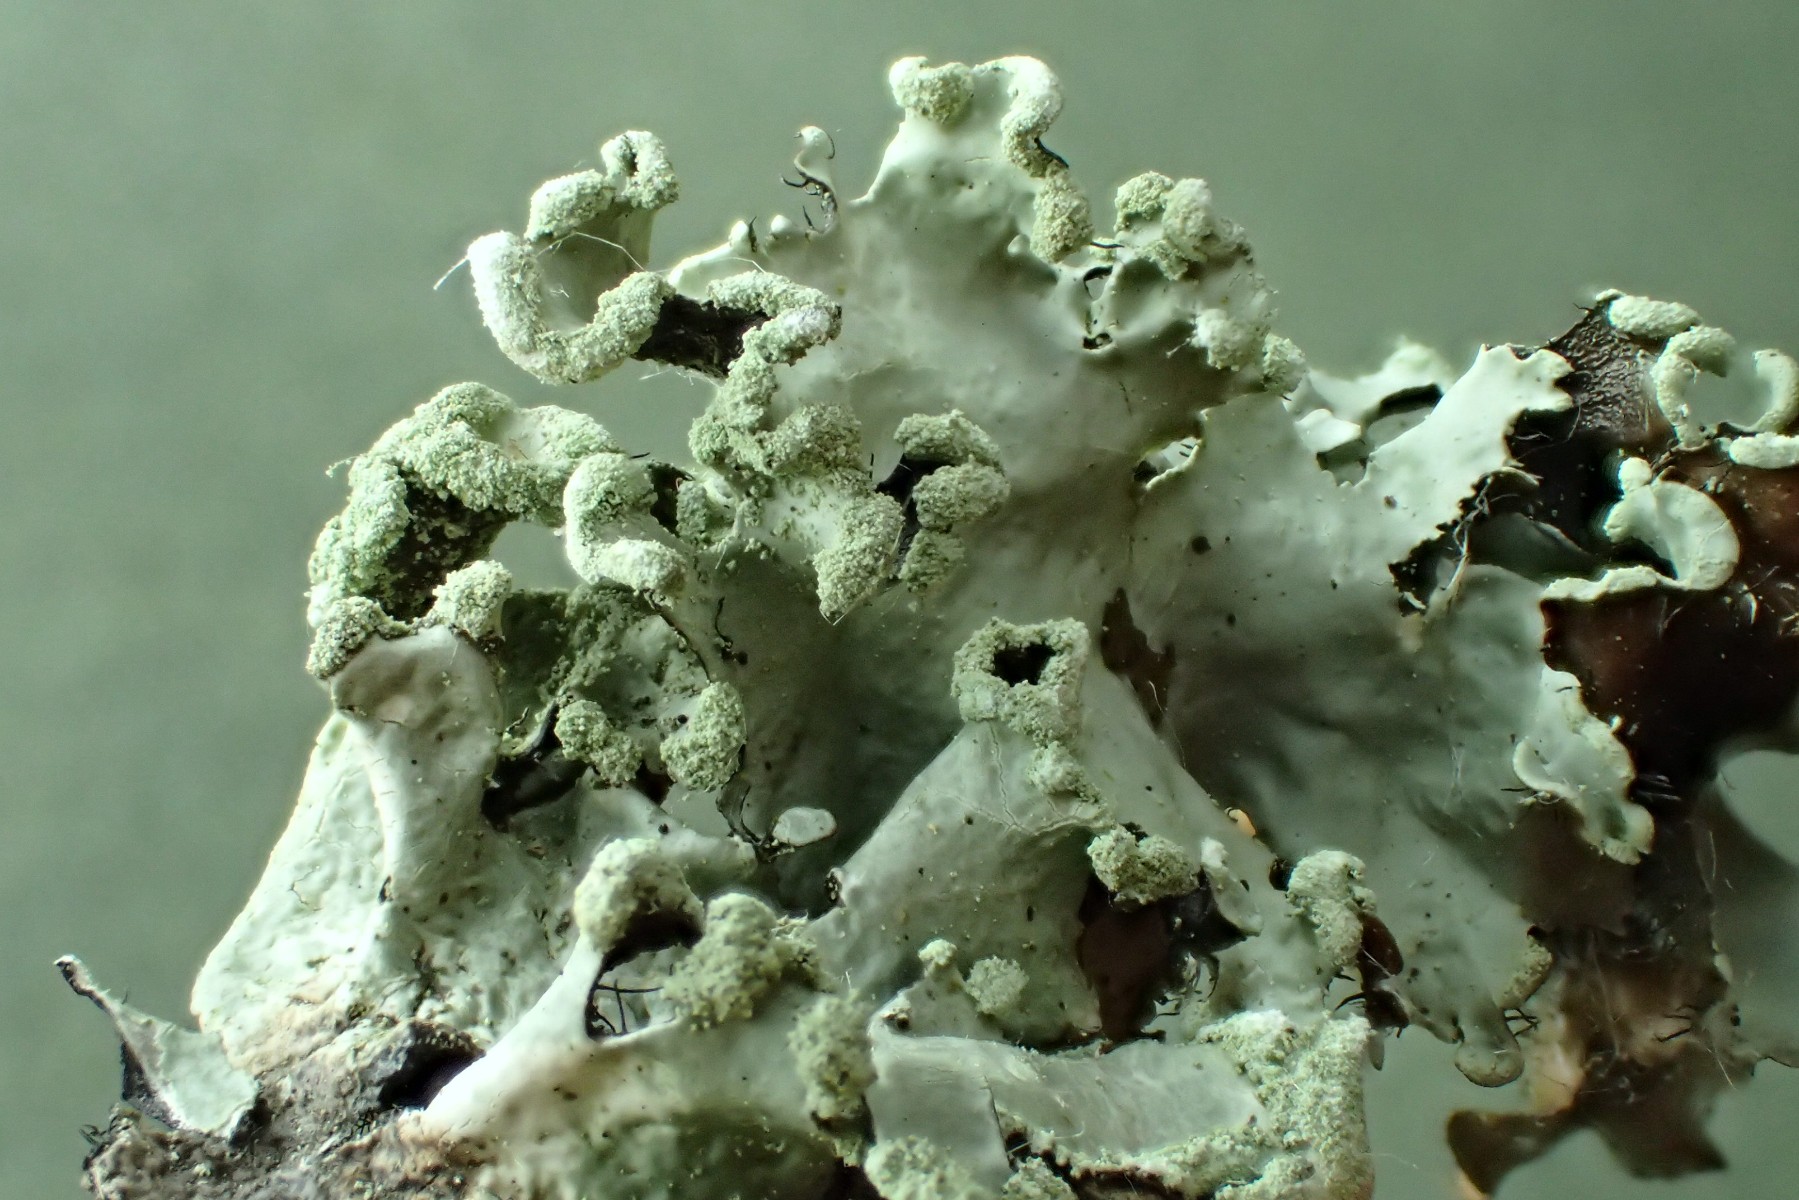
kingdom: Fungi
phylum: Ascomycota
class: Lecanoromycetes
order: Lecanorales
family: Parmeliaceae
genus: Parmotrema
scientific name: Parmotrema perlatum
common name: trådet skållav
